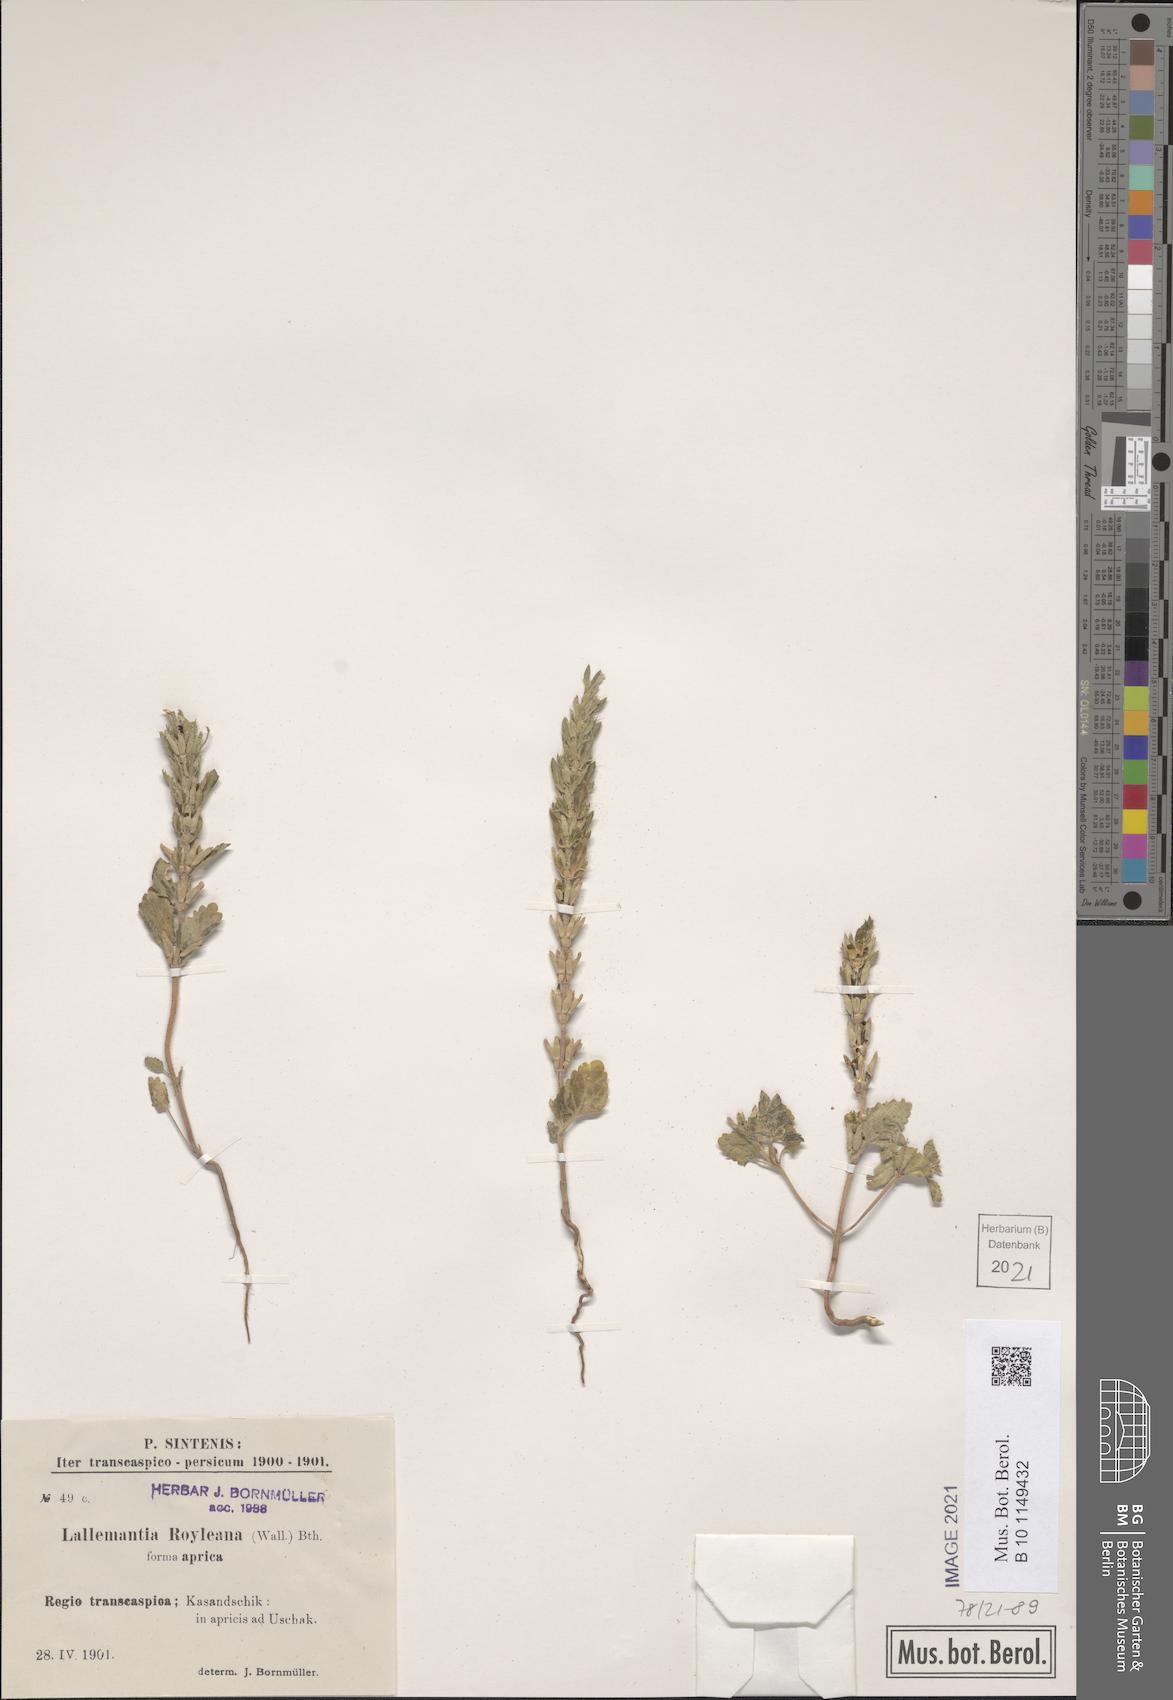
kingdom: Plantae
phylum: Tracheophyta
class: Magnoliopsida
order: Lamiales
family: Lamiaceae
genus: Lallemantia
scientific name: Lallemantia royleana
